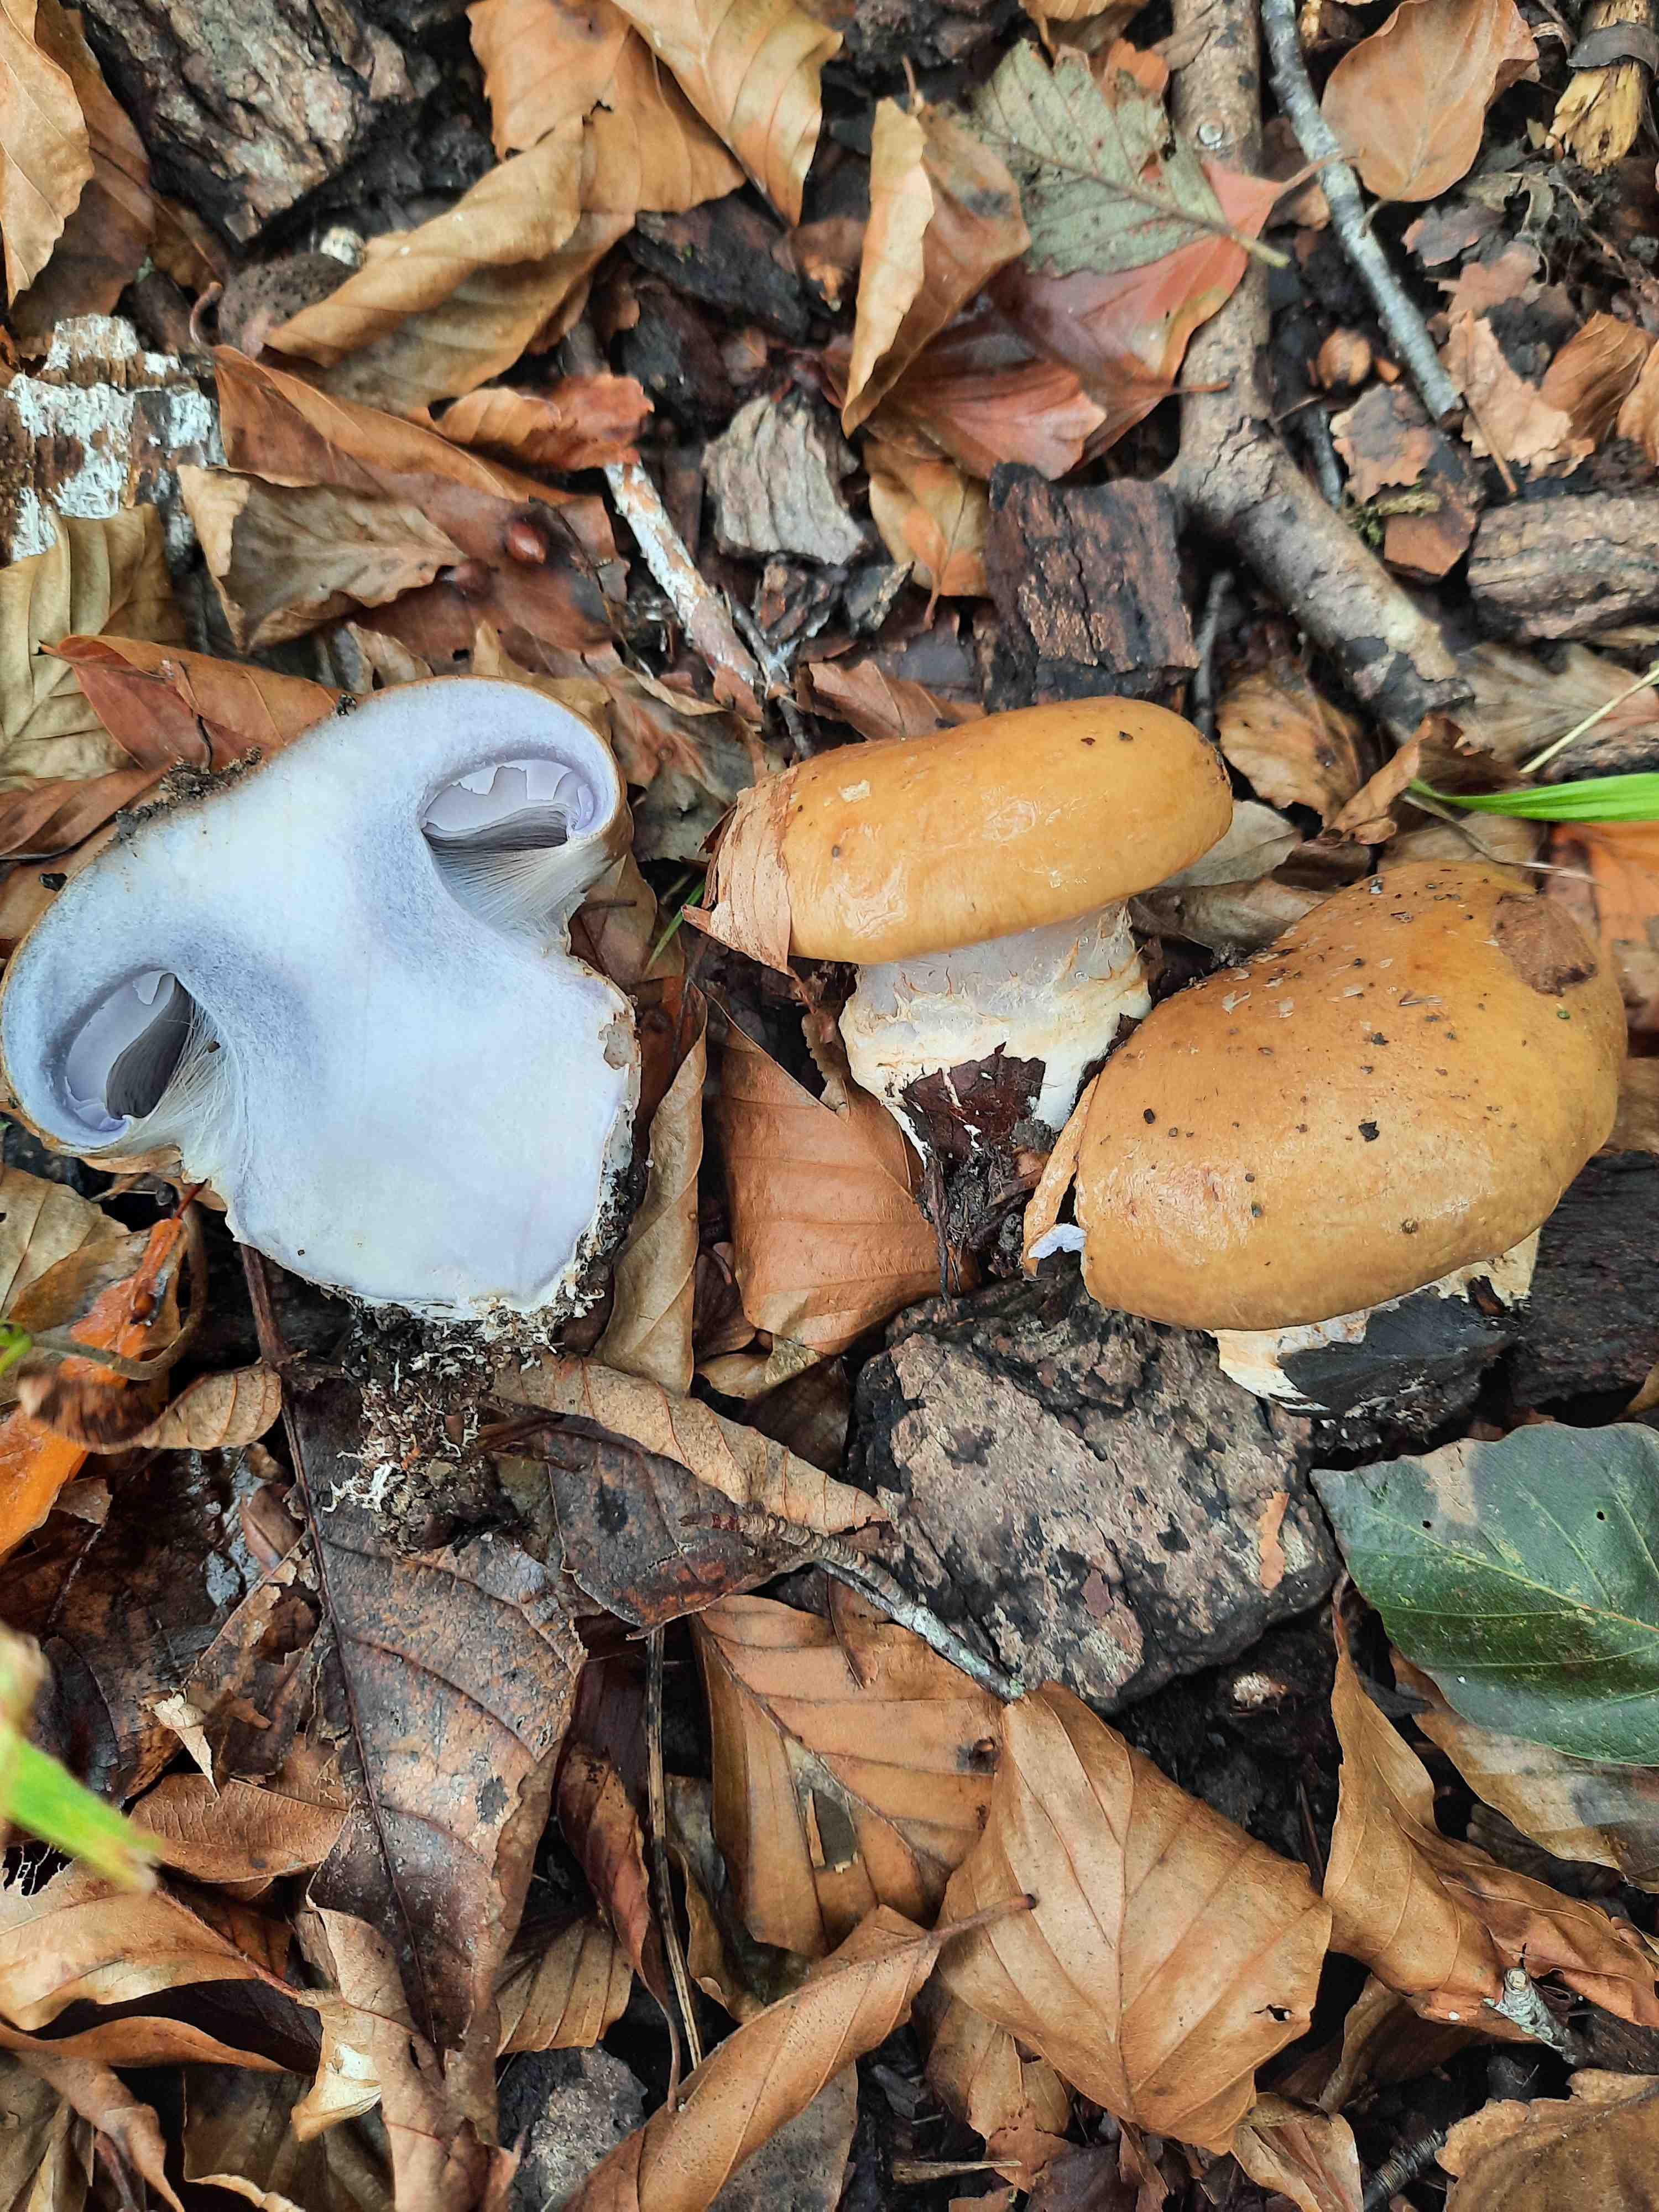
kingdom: Fungi
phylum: Basidiomycota
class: Agaricomycetes
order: Agaricales
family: Cortinariaceae
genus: Cortinarius
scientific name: Cortinarius anserinus
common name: bøge-slørhat
